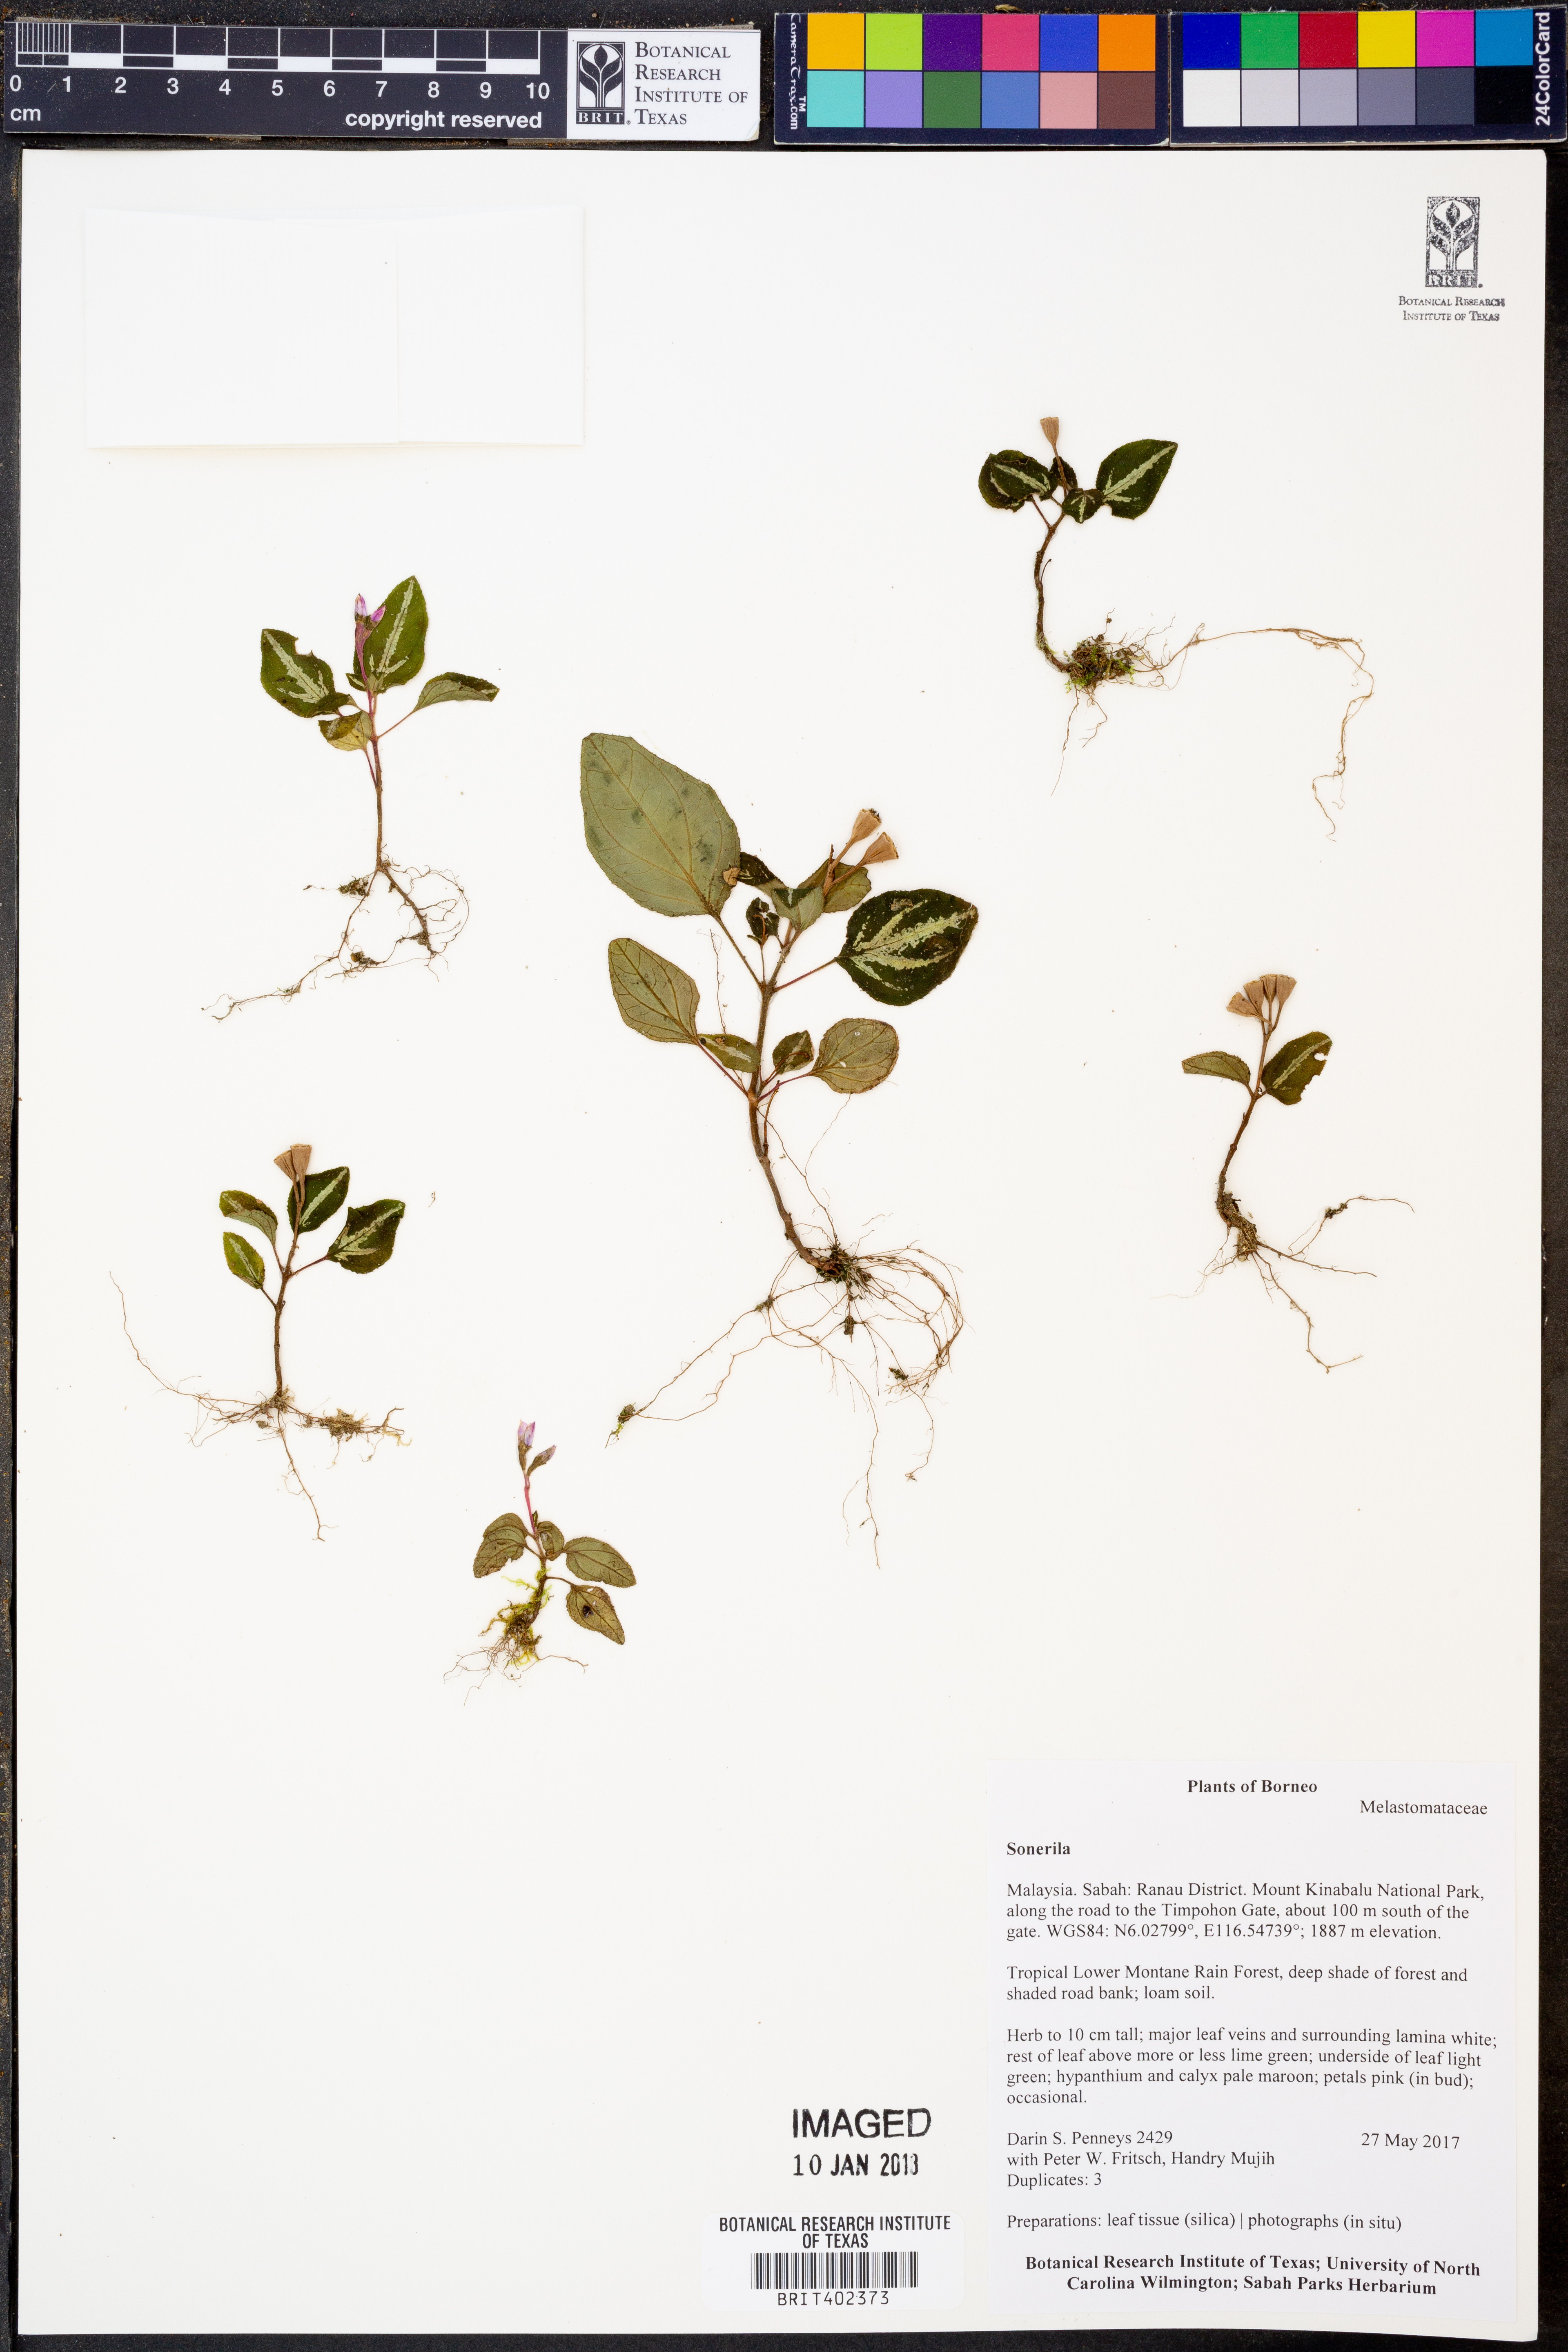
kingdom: Plantae
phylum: Tracheophyta
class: Magnoliopsida
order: Myrtales
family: Melastomataceae
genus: Sonerila
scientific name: Sonerila
